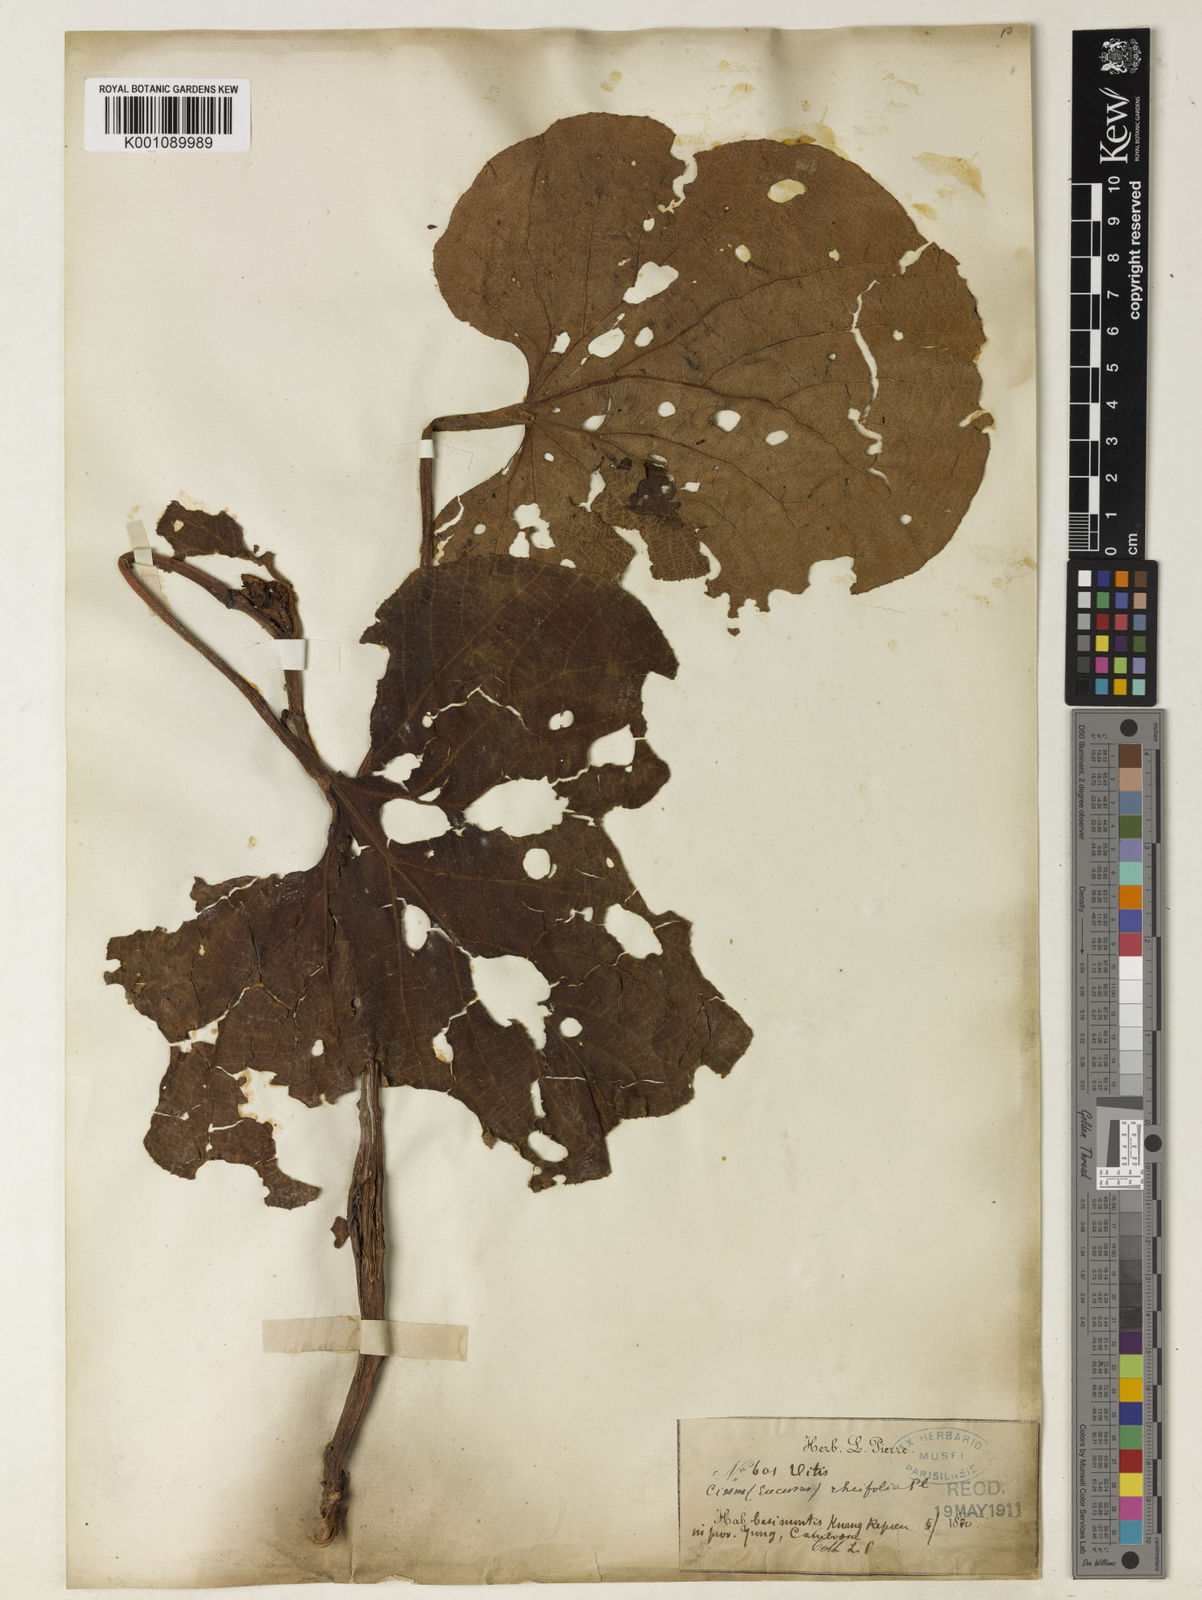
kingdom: Plantae
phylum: Tracheophyta
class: Magnoliopsida
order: Vitales
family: Vitaceae
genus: Cissus
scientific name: Cissus rheifolia
